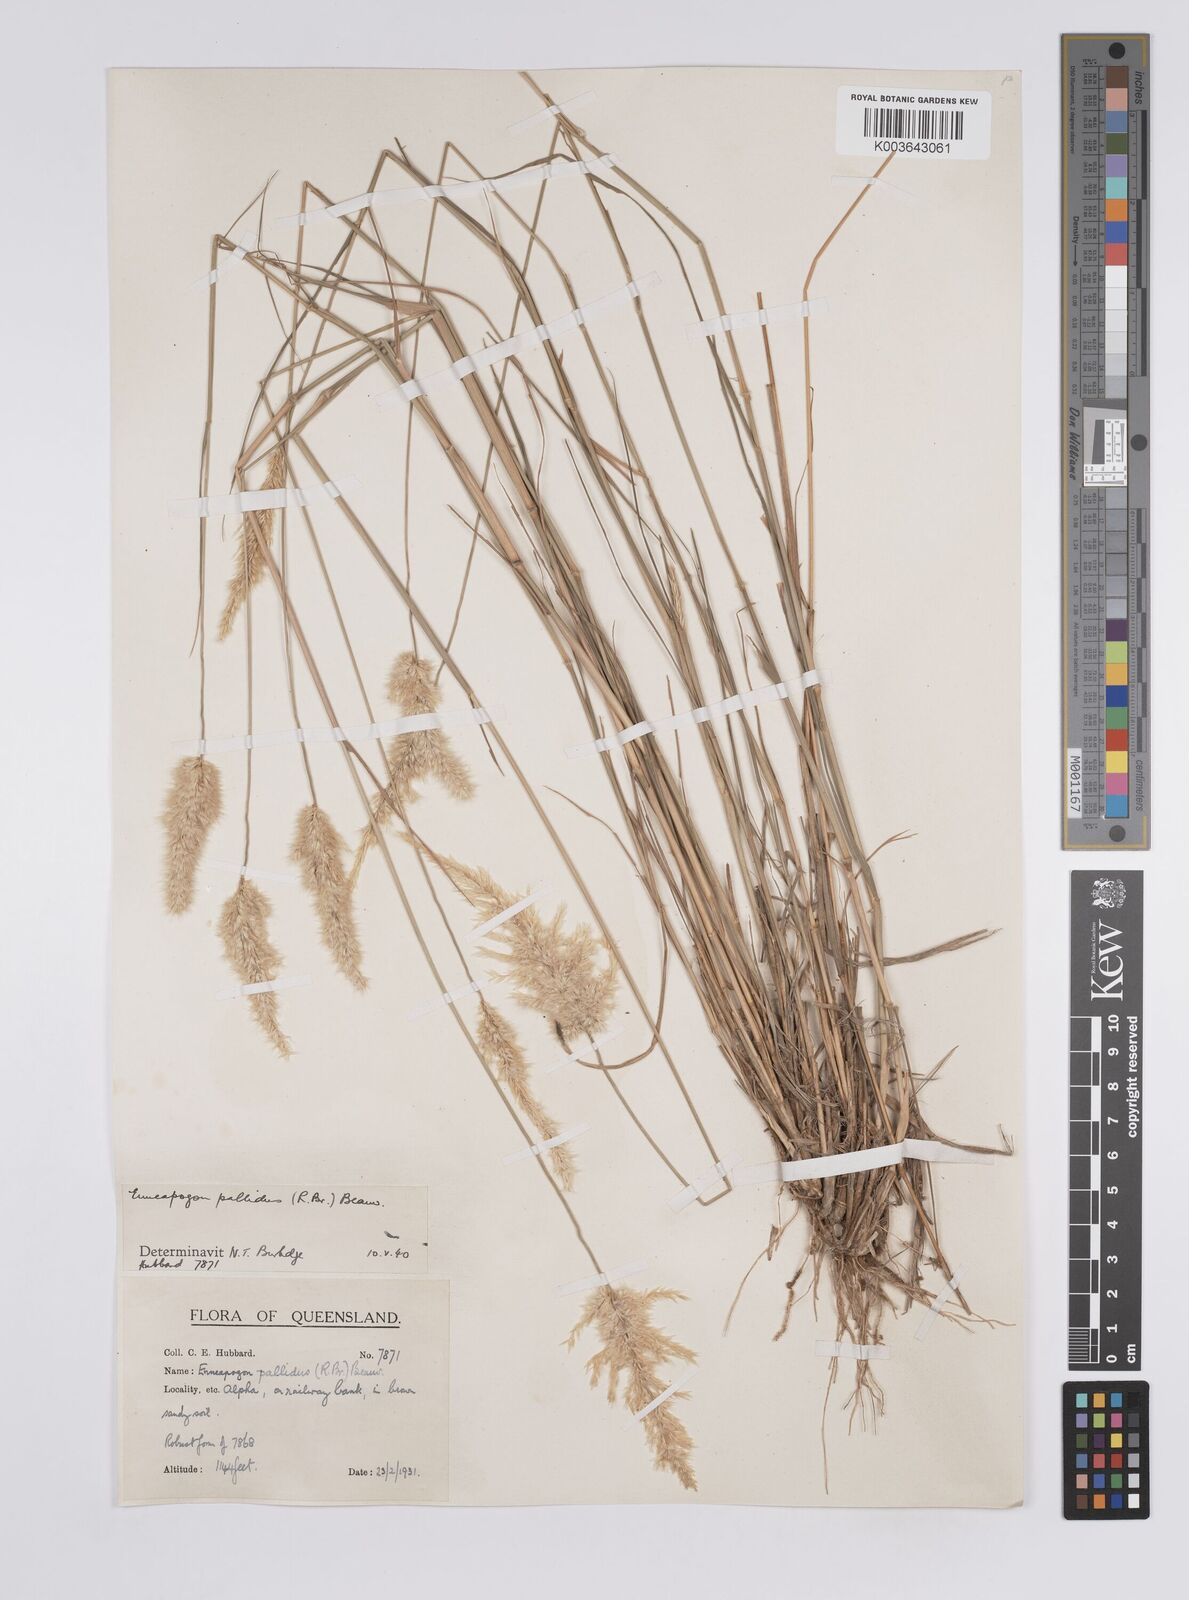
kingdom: Plantae
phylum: Tracheophyta
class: Liliopsida
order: Poales
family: Poaceae
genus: Enneapogon
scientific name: Enneapogon pallidus
